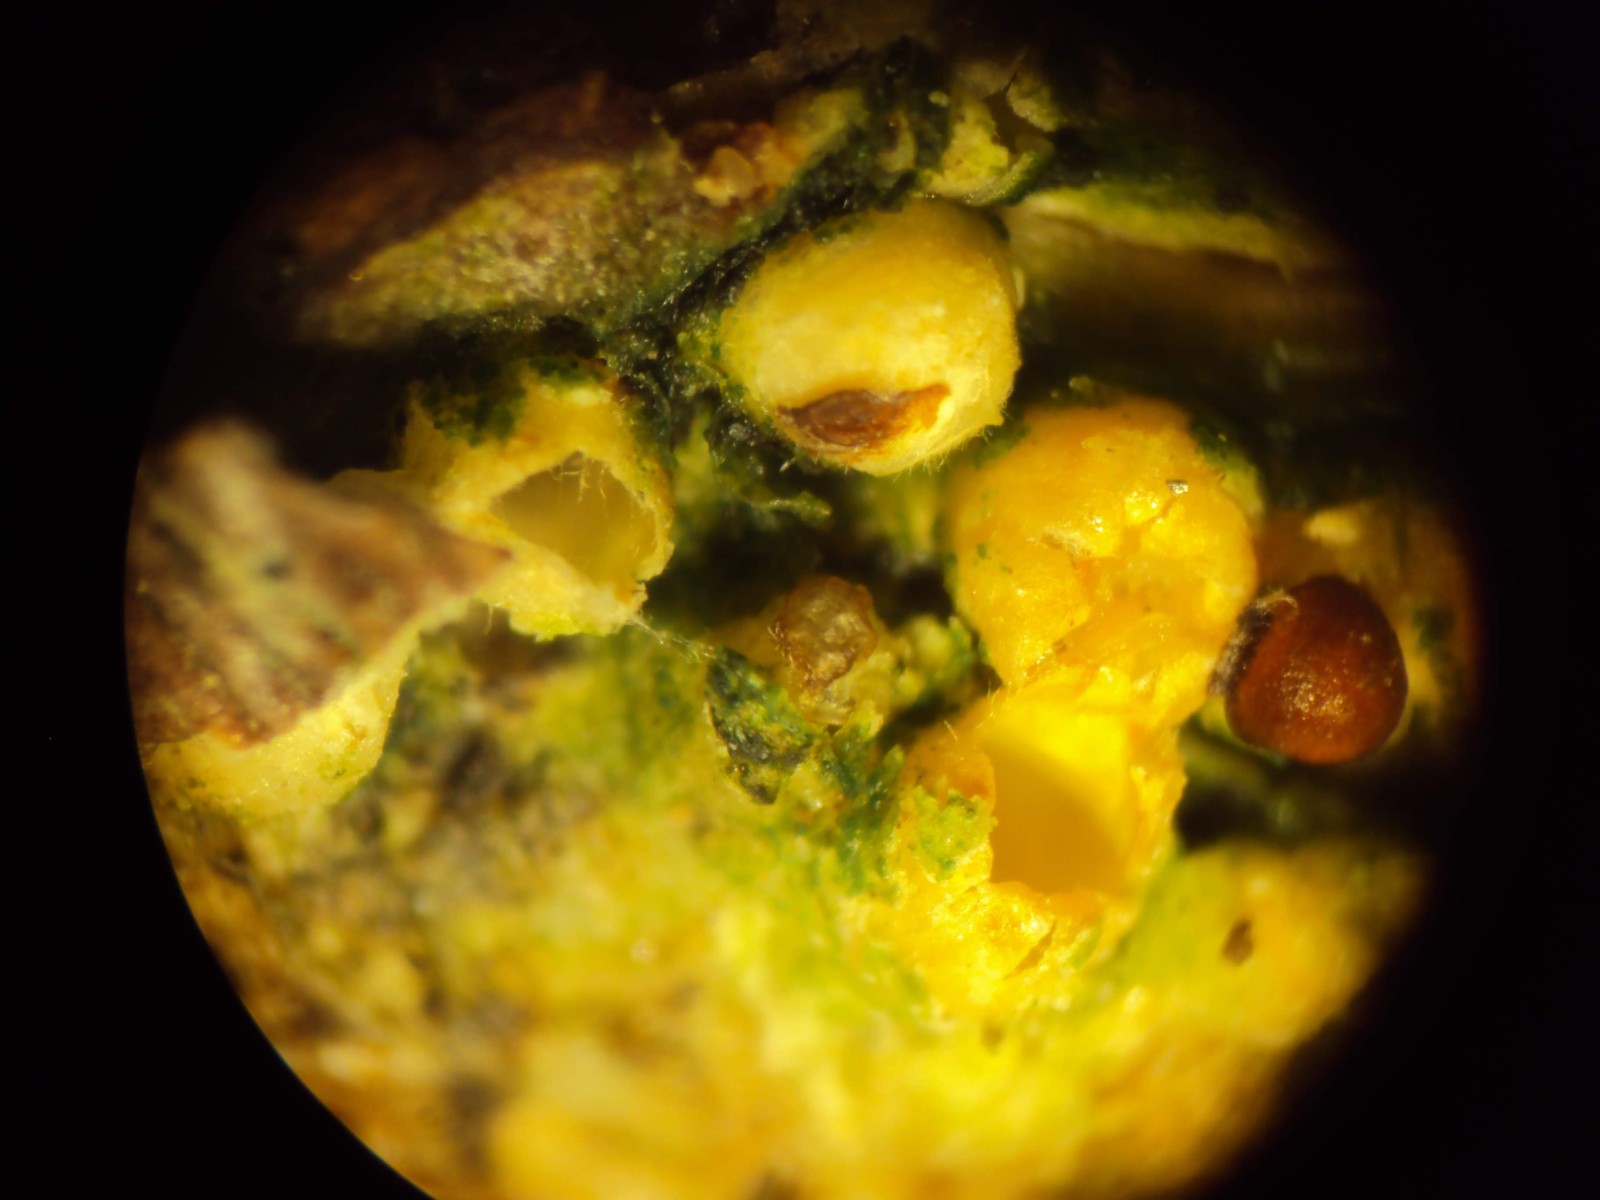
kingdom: Fungi
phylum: Basidiomycota
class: Agaricomycetes
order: Geastrales
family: Geastraceae
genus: Sphaerobolus
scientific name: Sphaerobolus stellatus
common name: bombekaster
